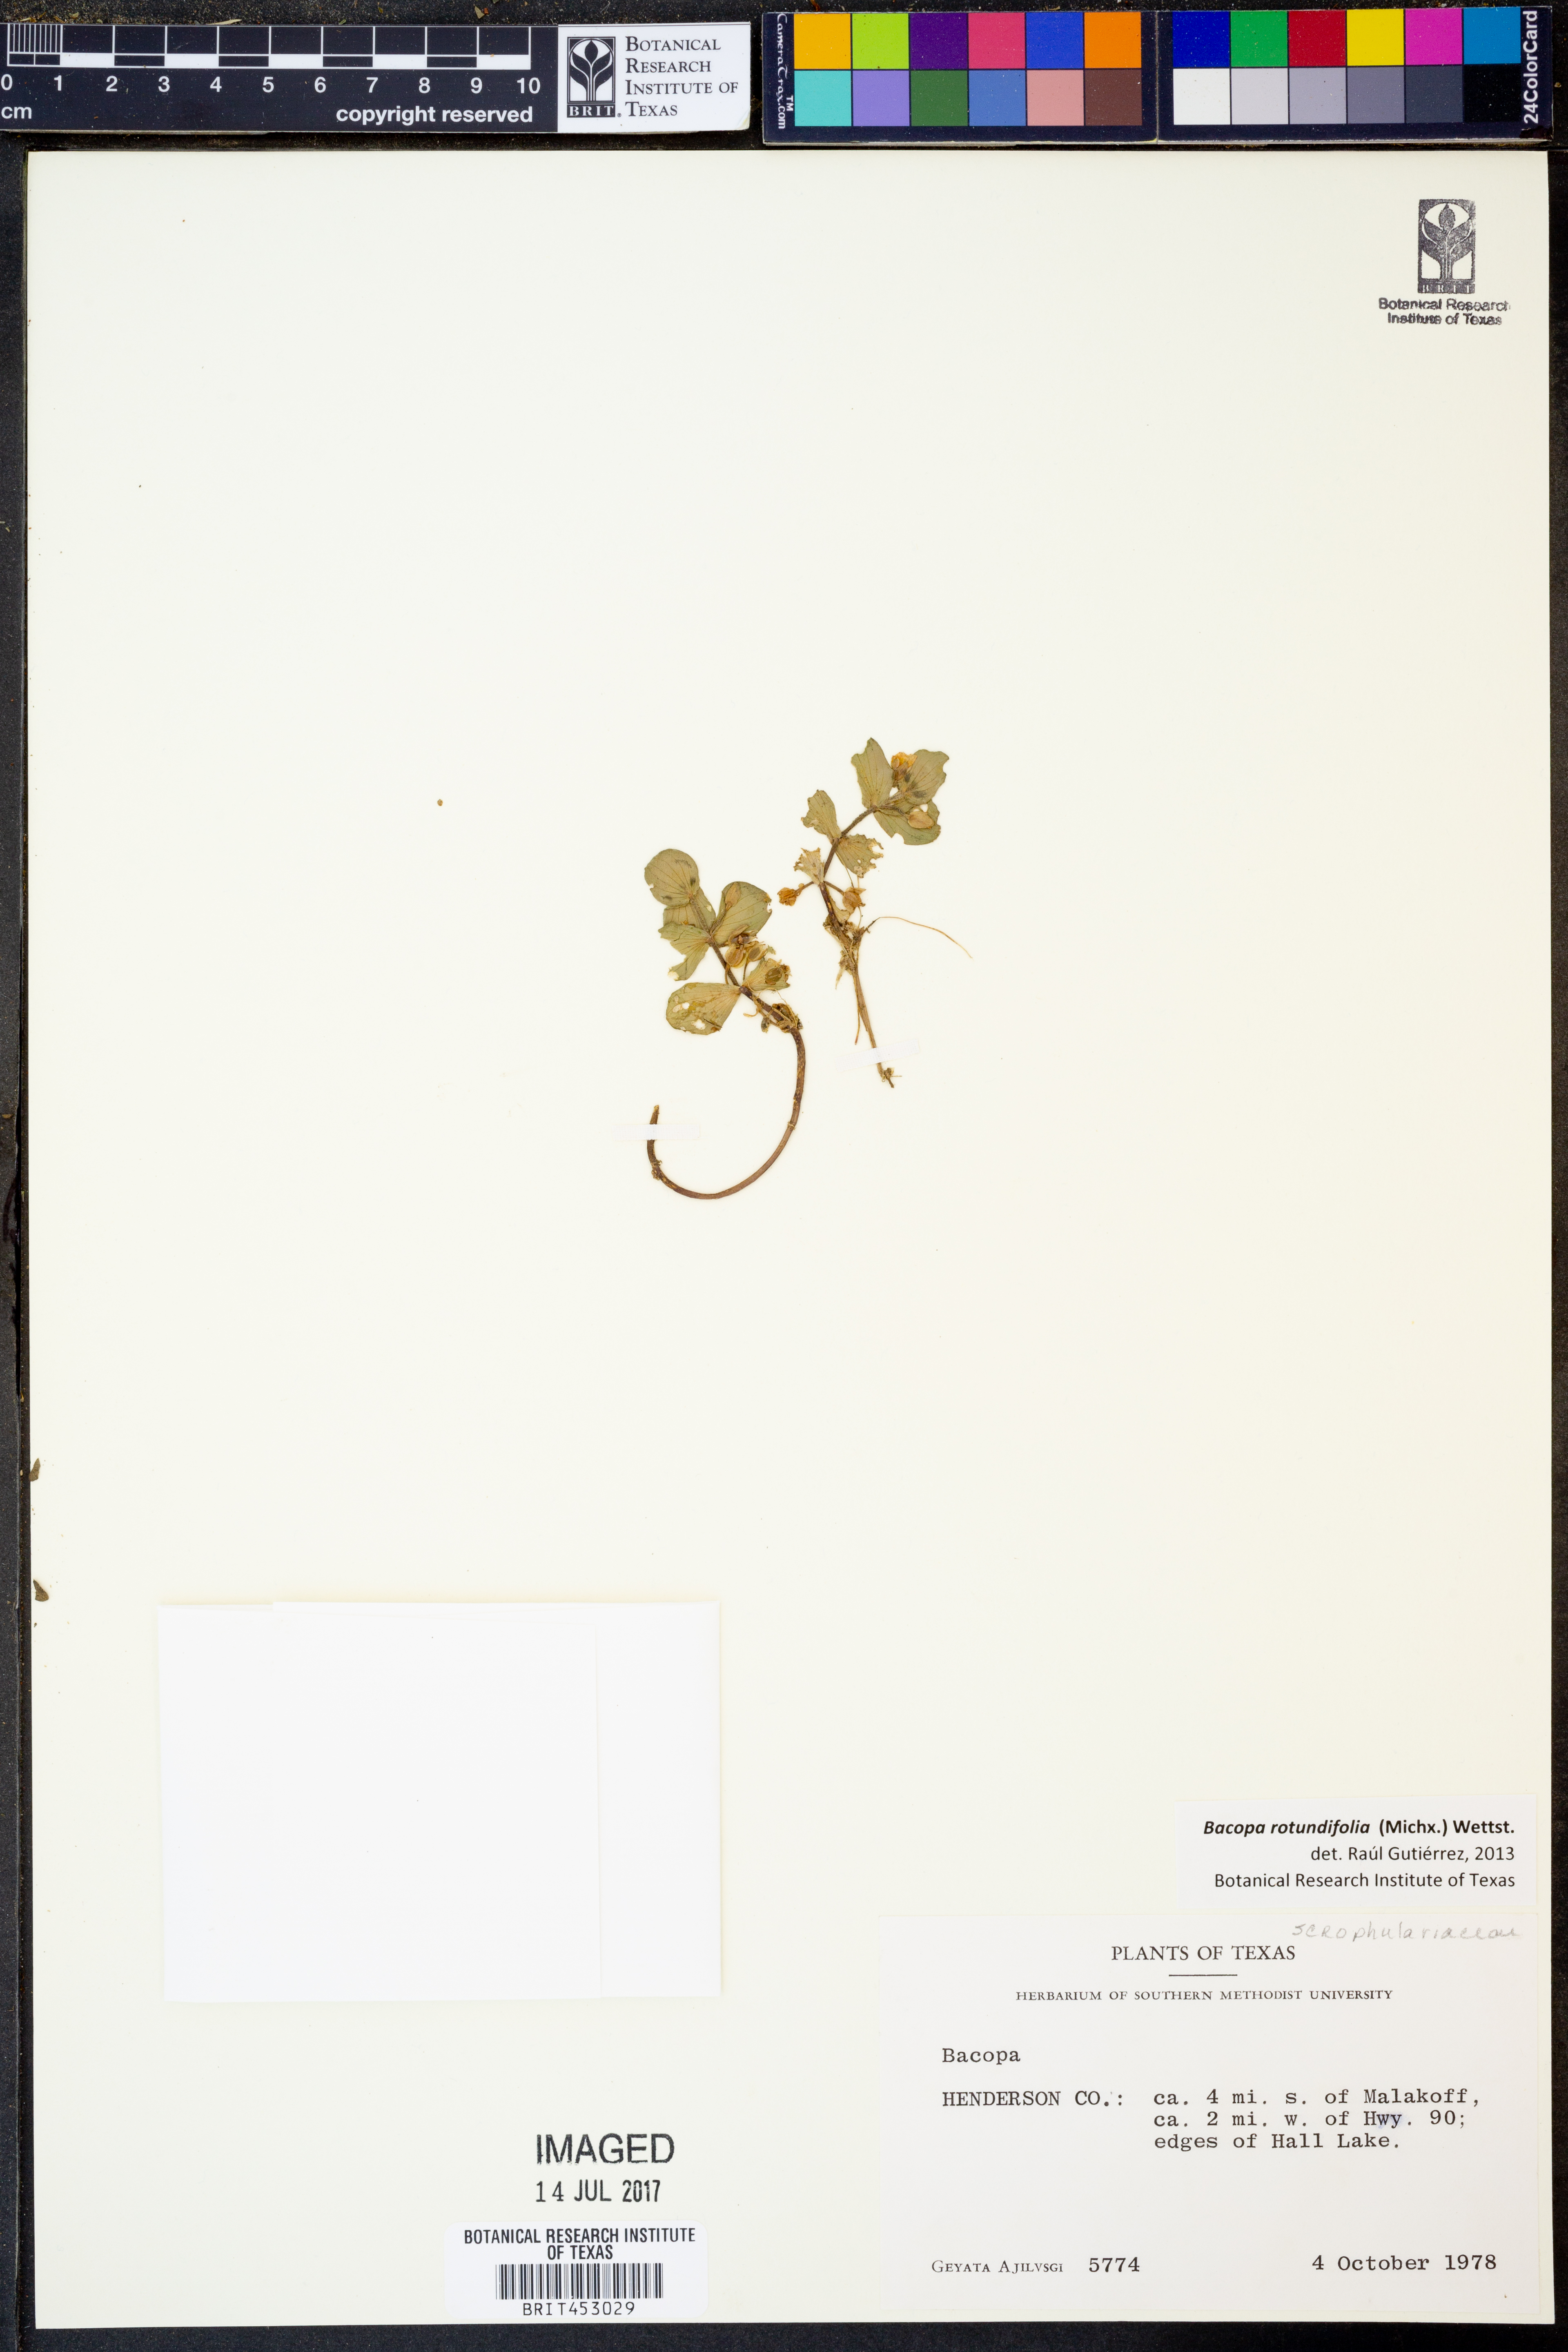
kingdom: Plantae
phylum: Tracheophyta
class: Magnoliopsida
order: Lamiales
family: Plantaginaceae
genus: Bacopa
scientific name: Bacopa rotundifolia
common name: Disc water hyssop
